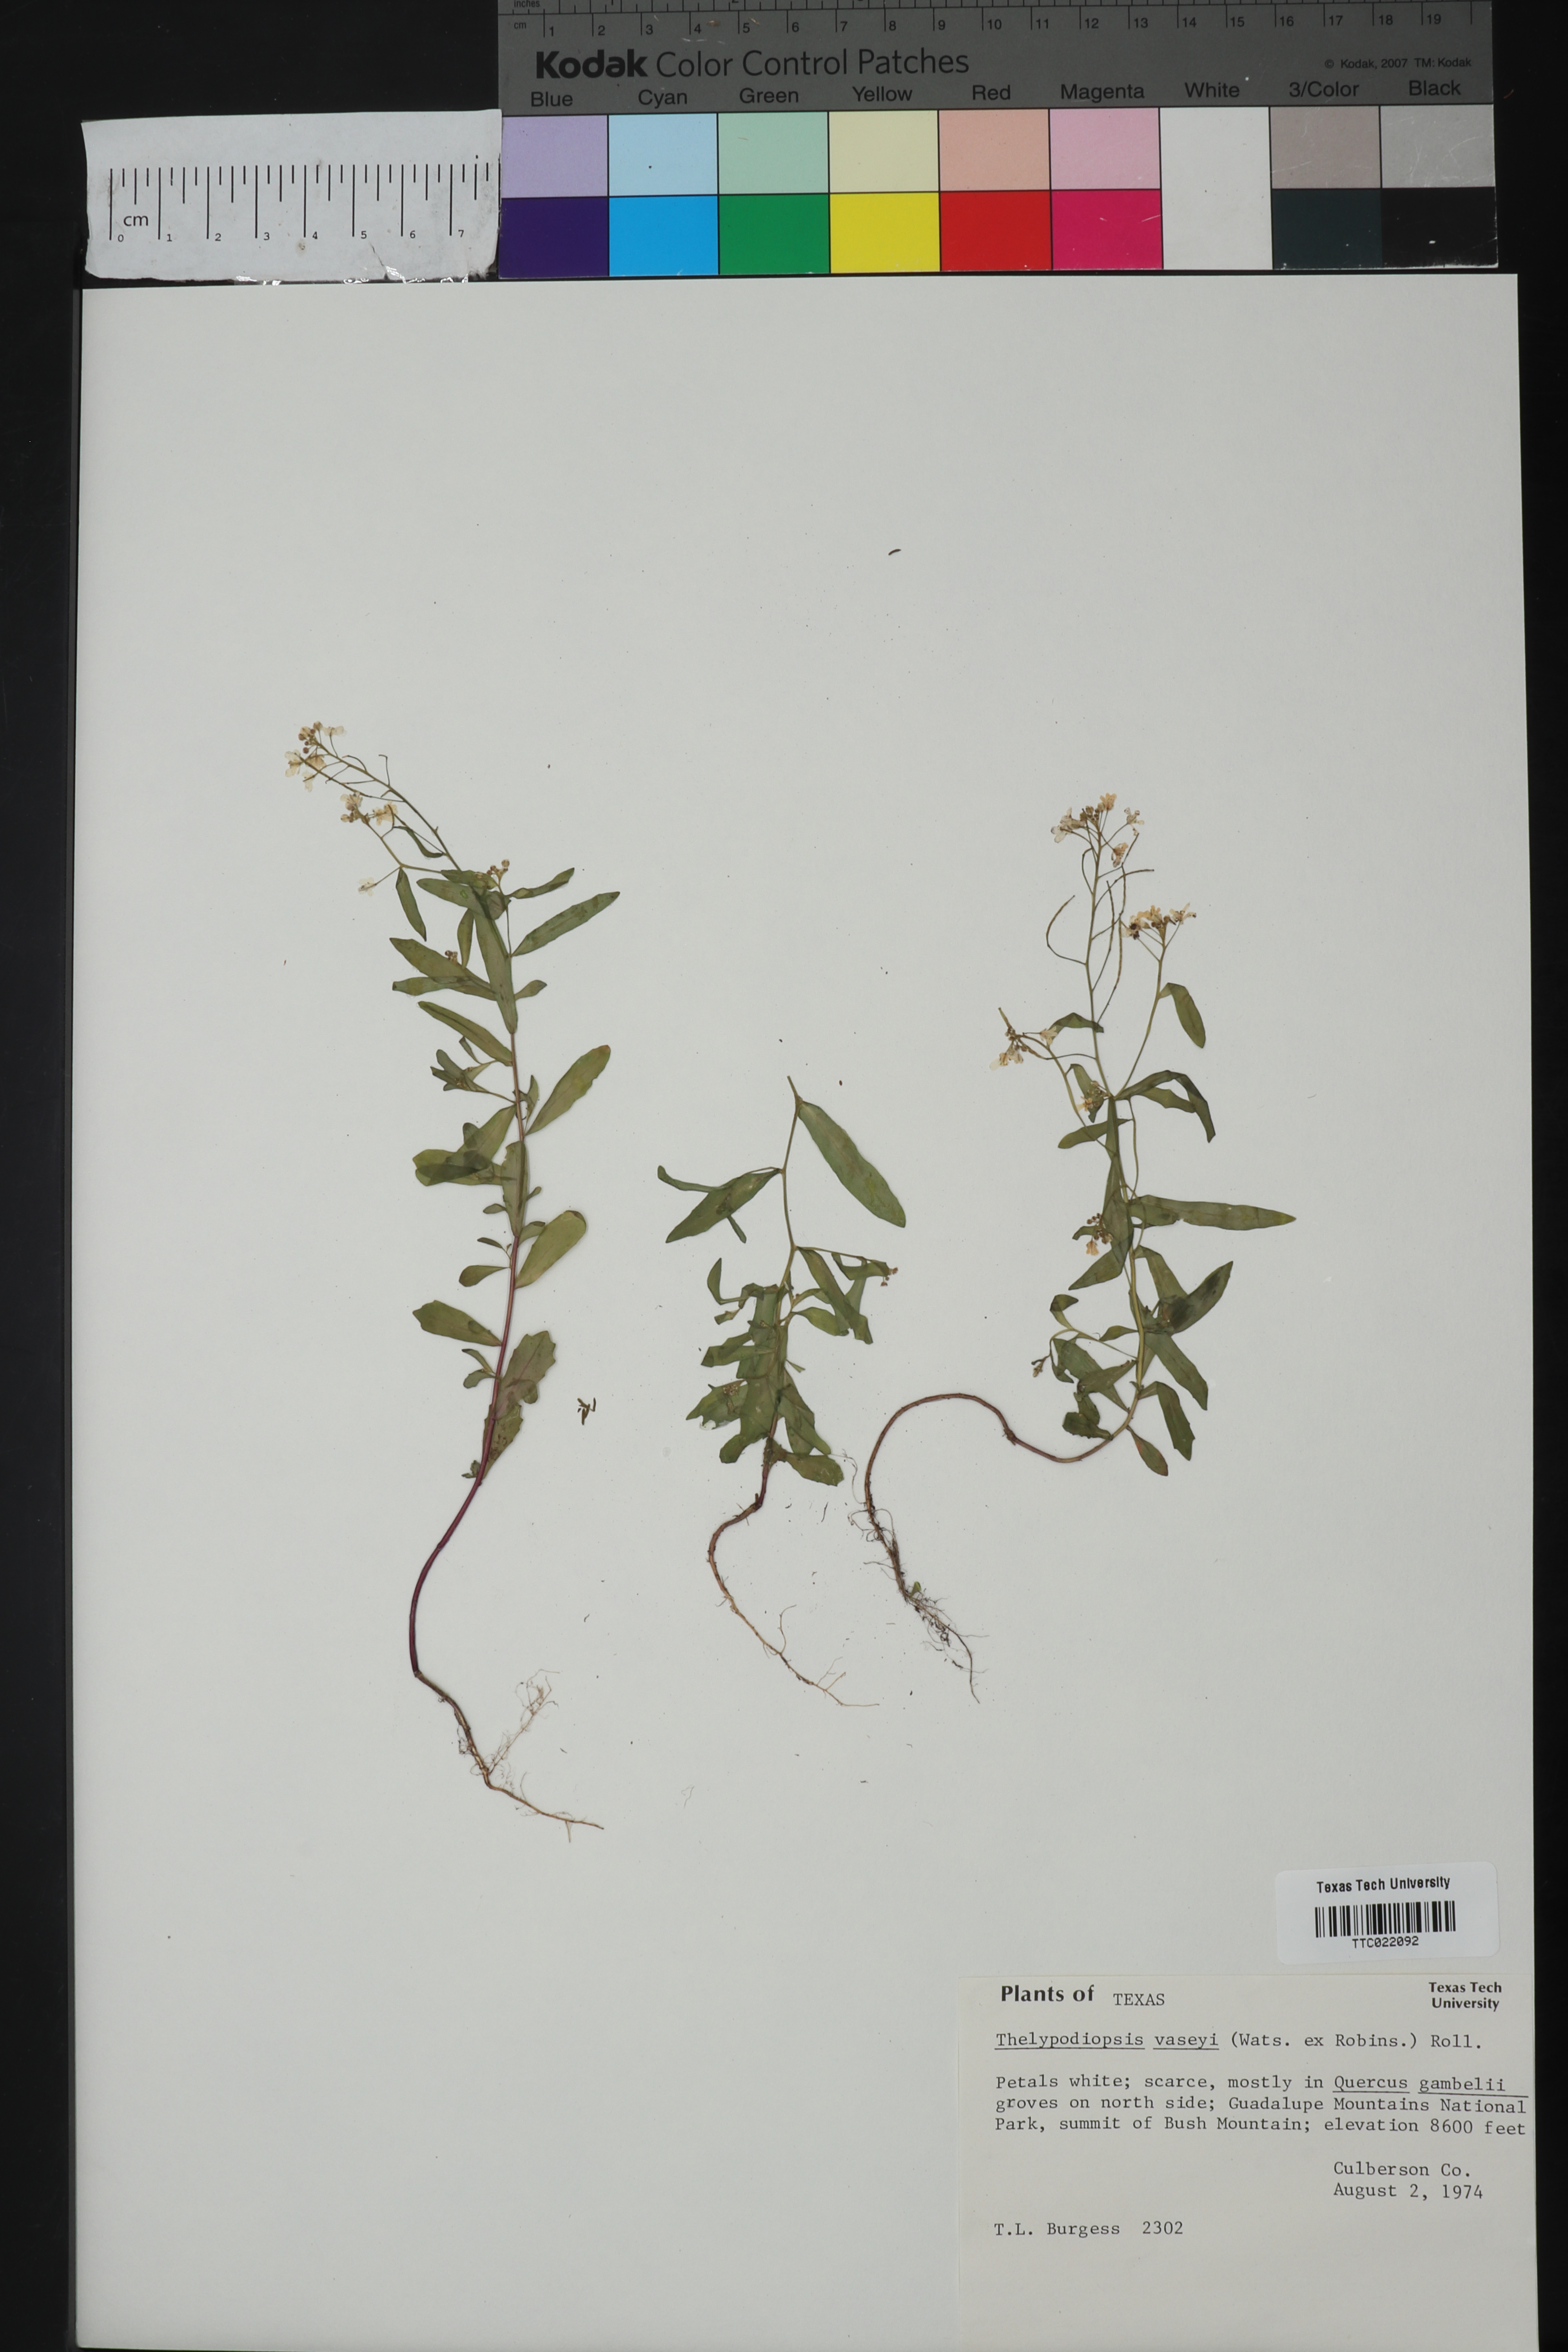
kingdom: Plantae
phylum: Tracheophyta
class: Magnoliopsida
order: Brassicales
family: Brassicaceae
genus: Mostacillastrum
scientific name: Mostacillastrum subauriculatum
